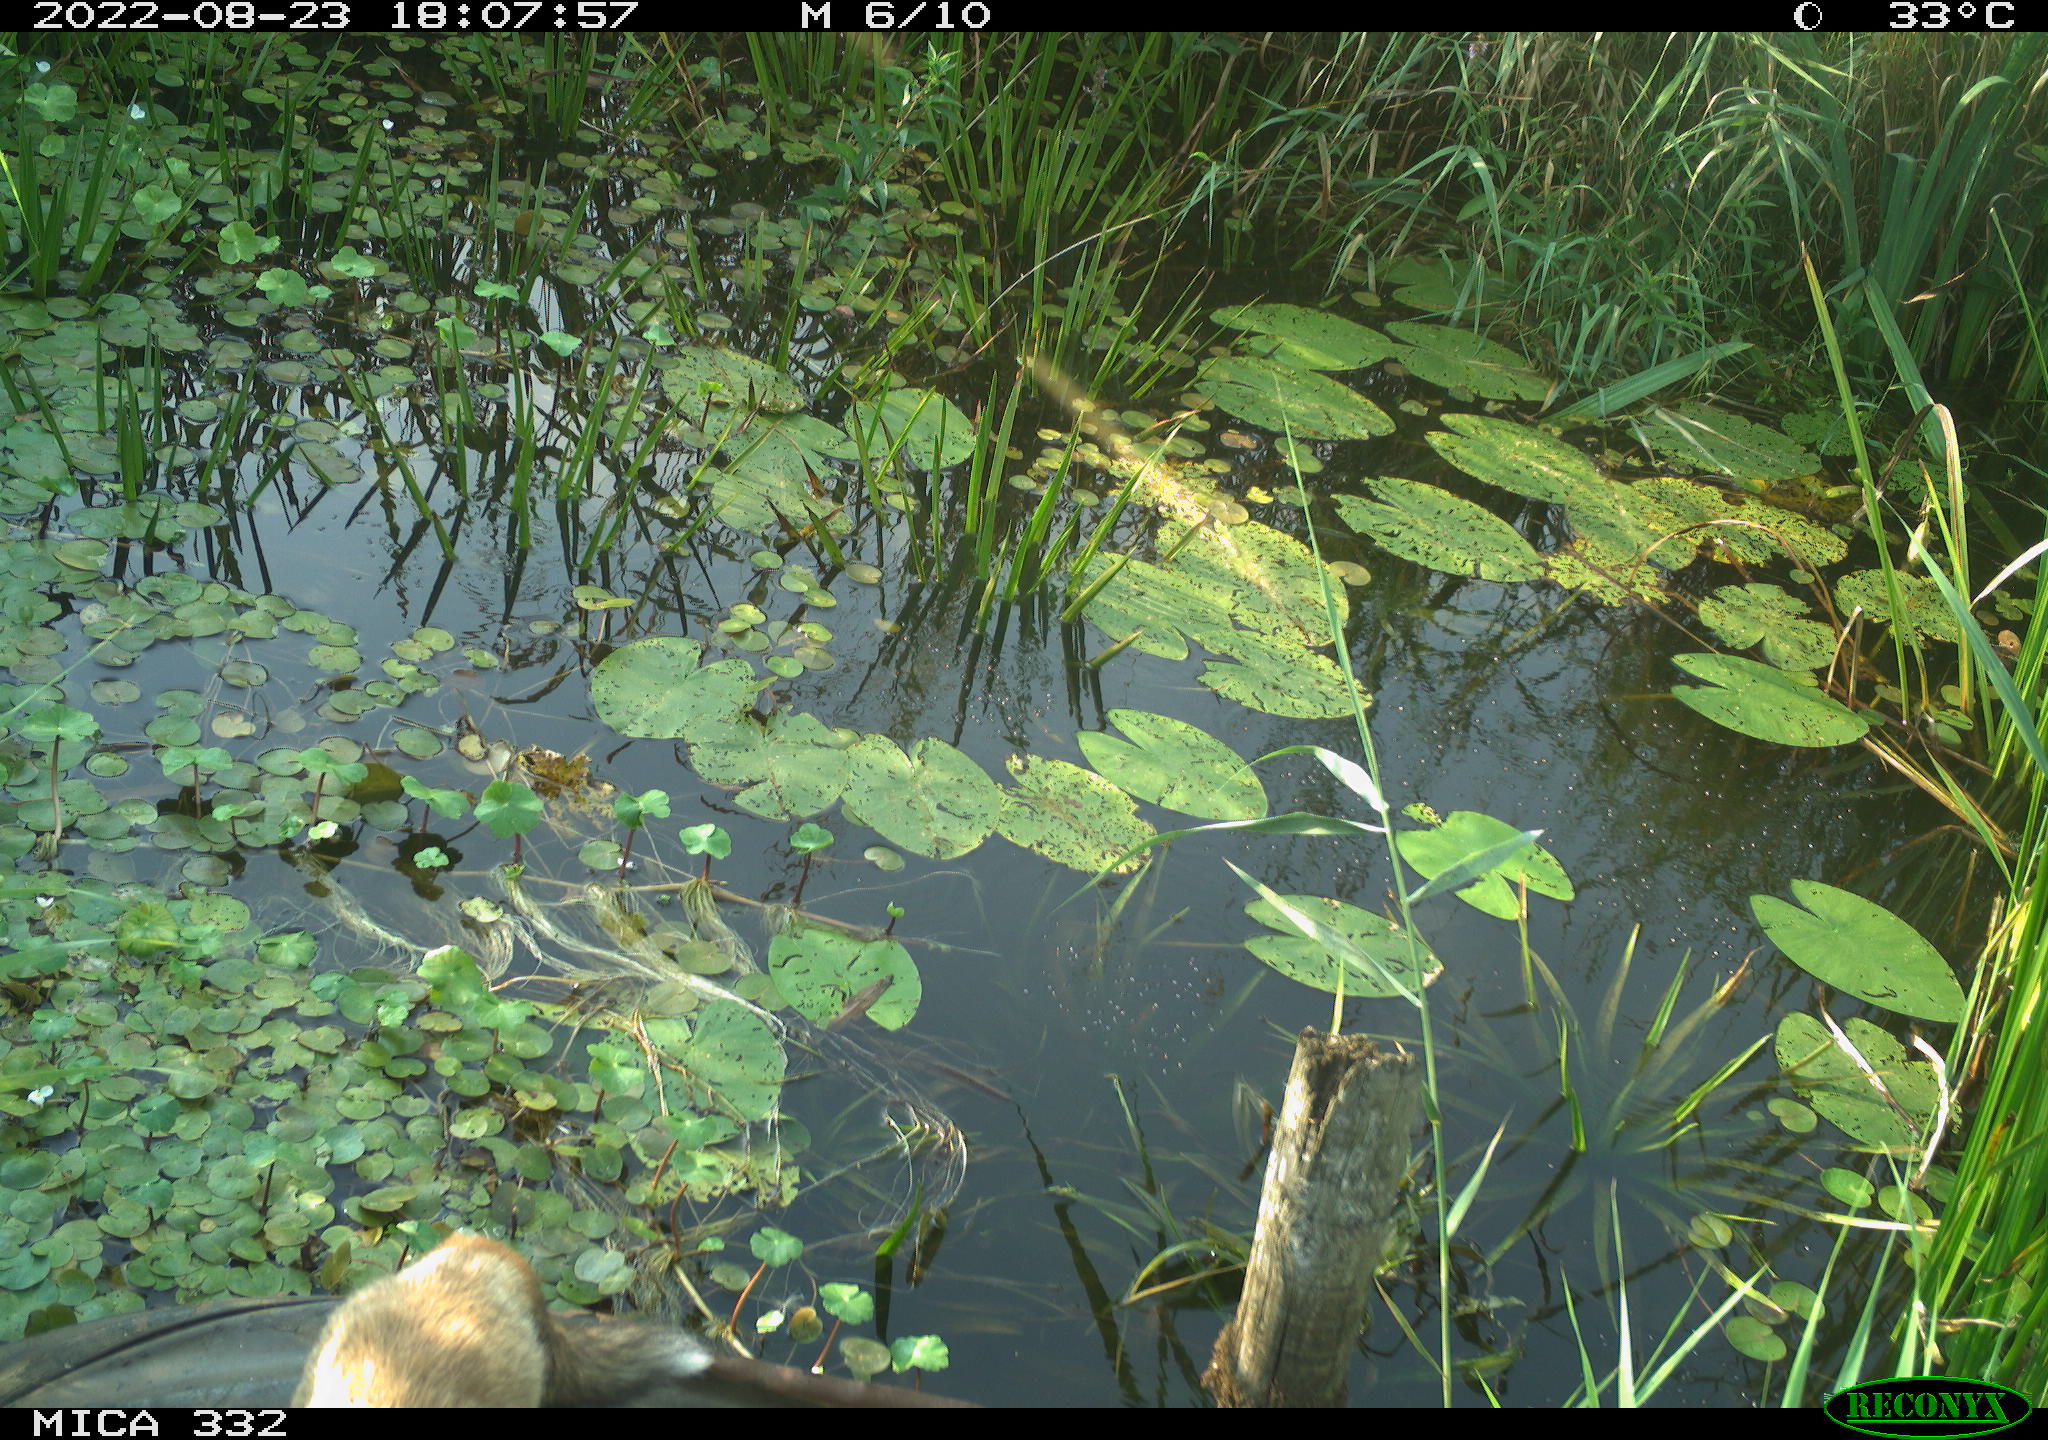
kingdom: Animalia
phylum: Chordata
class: Mammalia
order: Carnivora
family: Canidae
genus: Vulpes
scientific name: Vulpes vulpes
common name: Red fox
